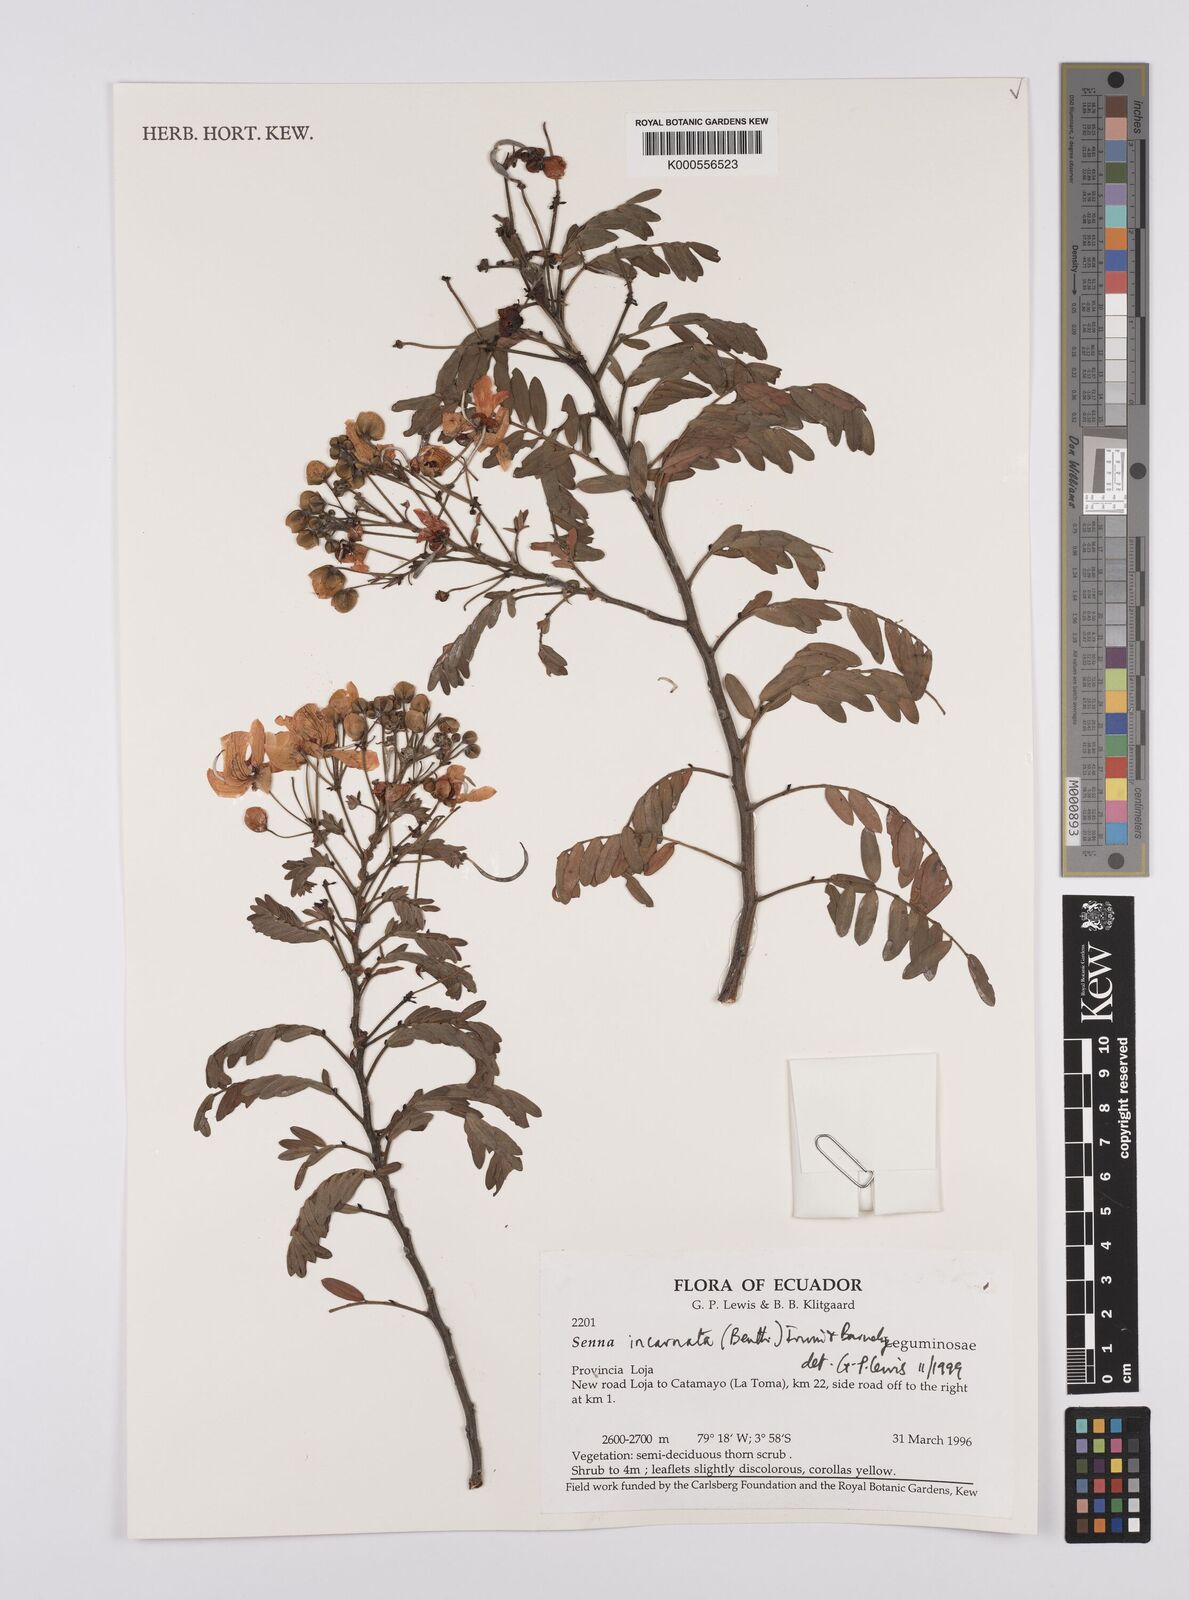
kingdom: Plantae
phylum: Tracheophyta
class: Magnoliopsida
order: Fabales
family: Fabaceae
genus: Senna
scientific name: Senna incarnata
